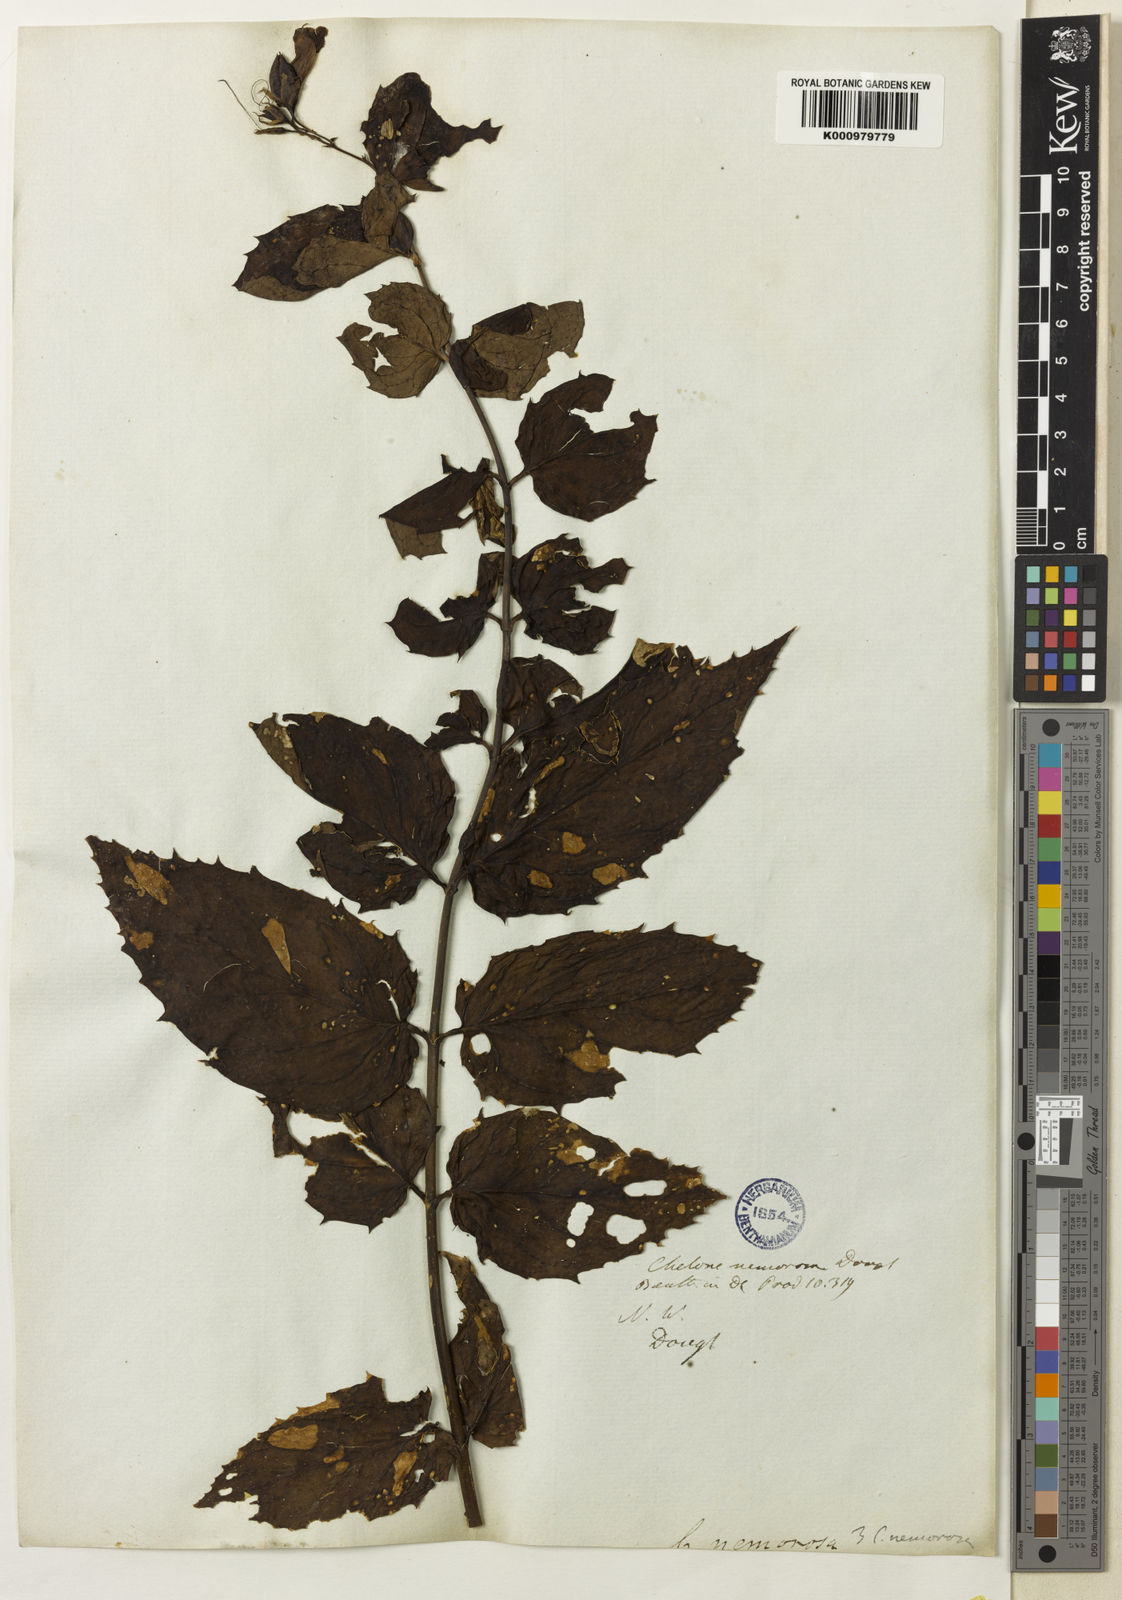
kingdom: Plantae
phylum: Tracheophyta
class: Magnoliopsida
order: Lamiales
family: Plantaginaceae
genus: Nothochelone
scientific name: Nothochelone nemorosa
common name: Woodland beardtongue
